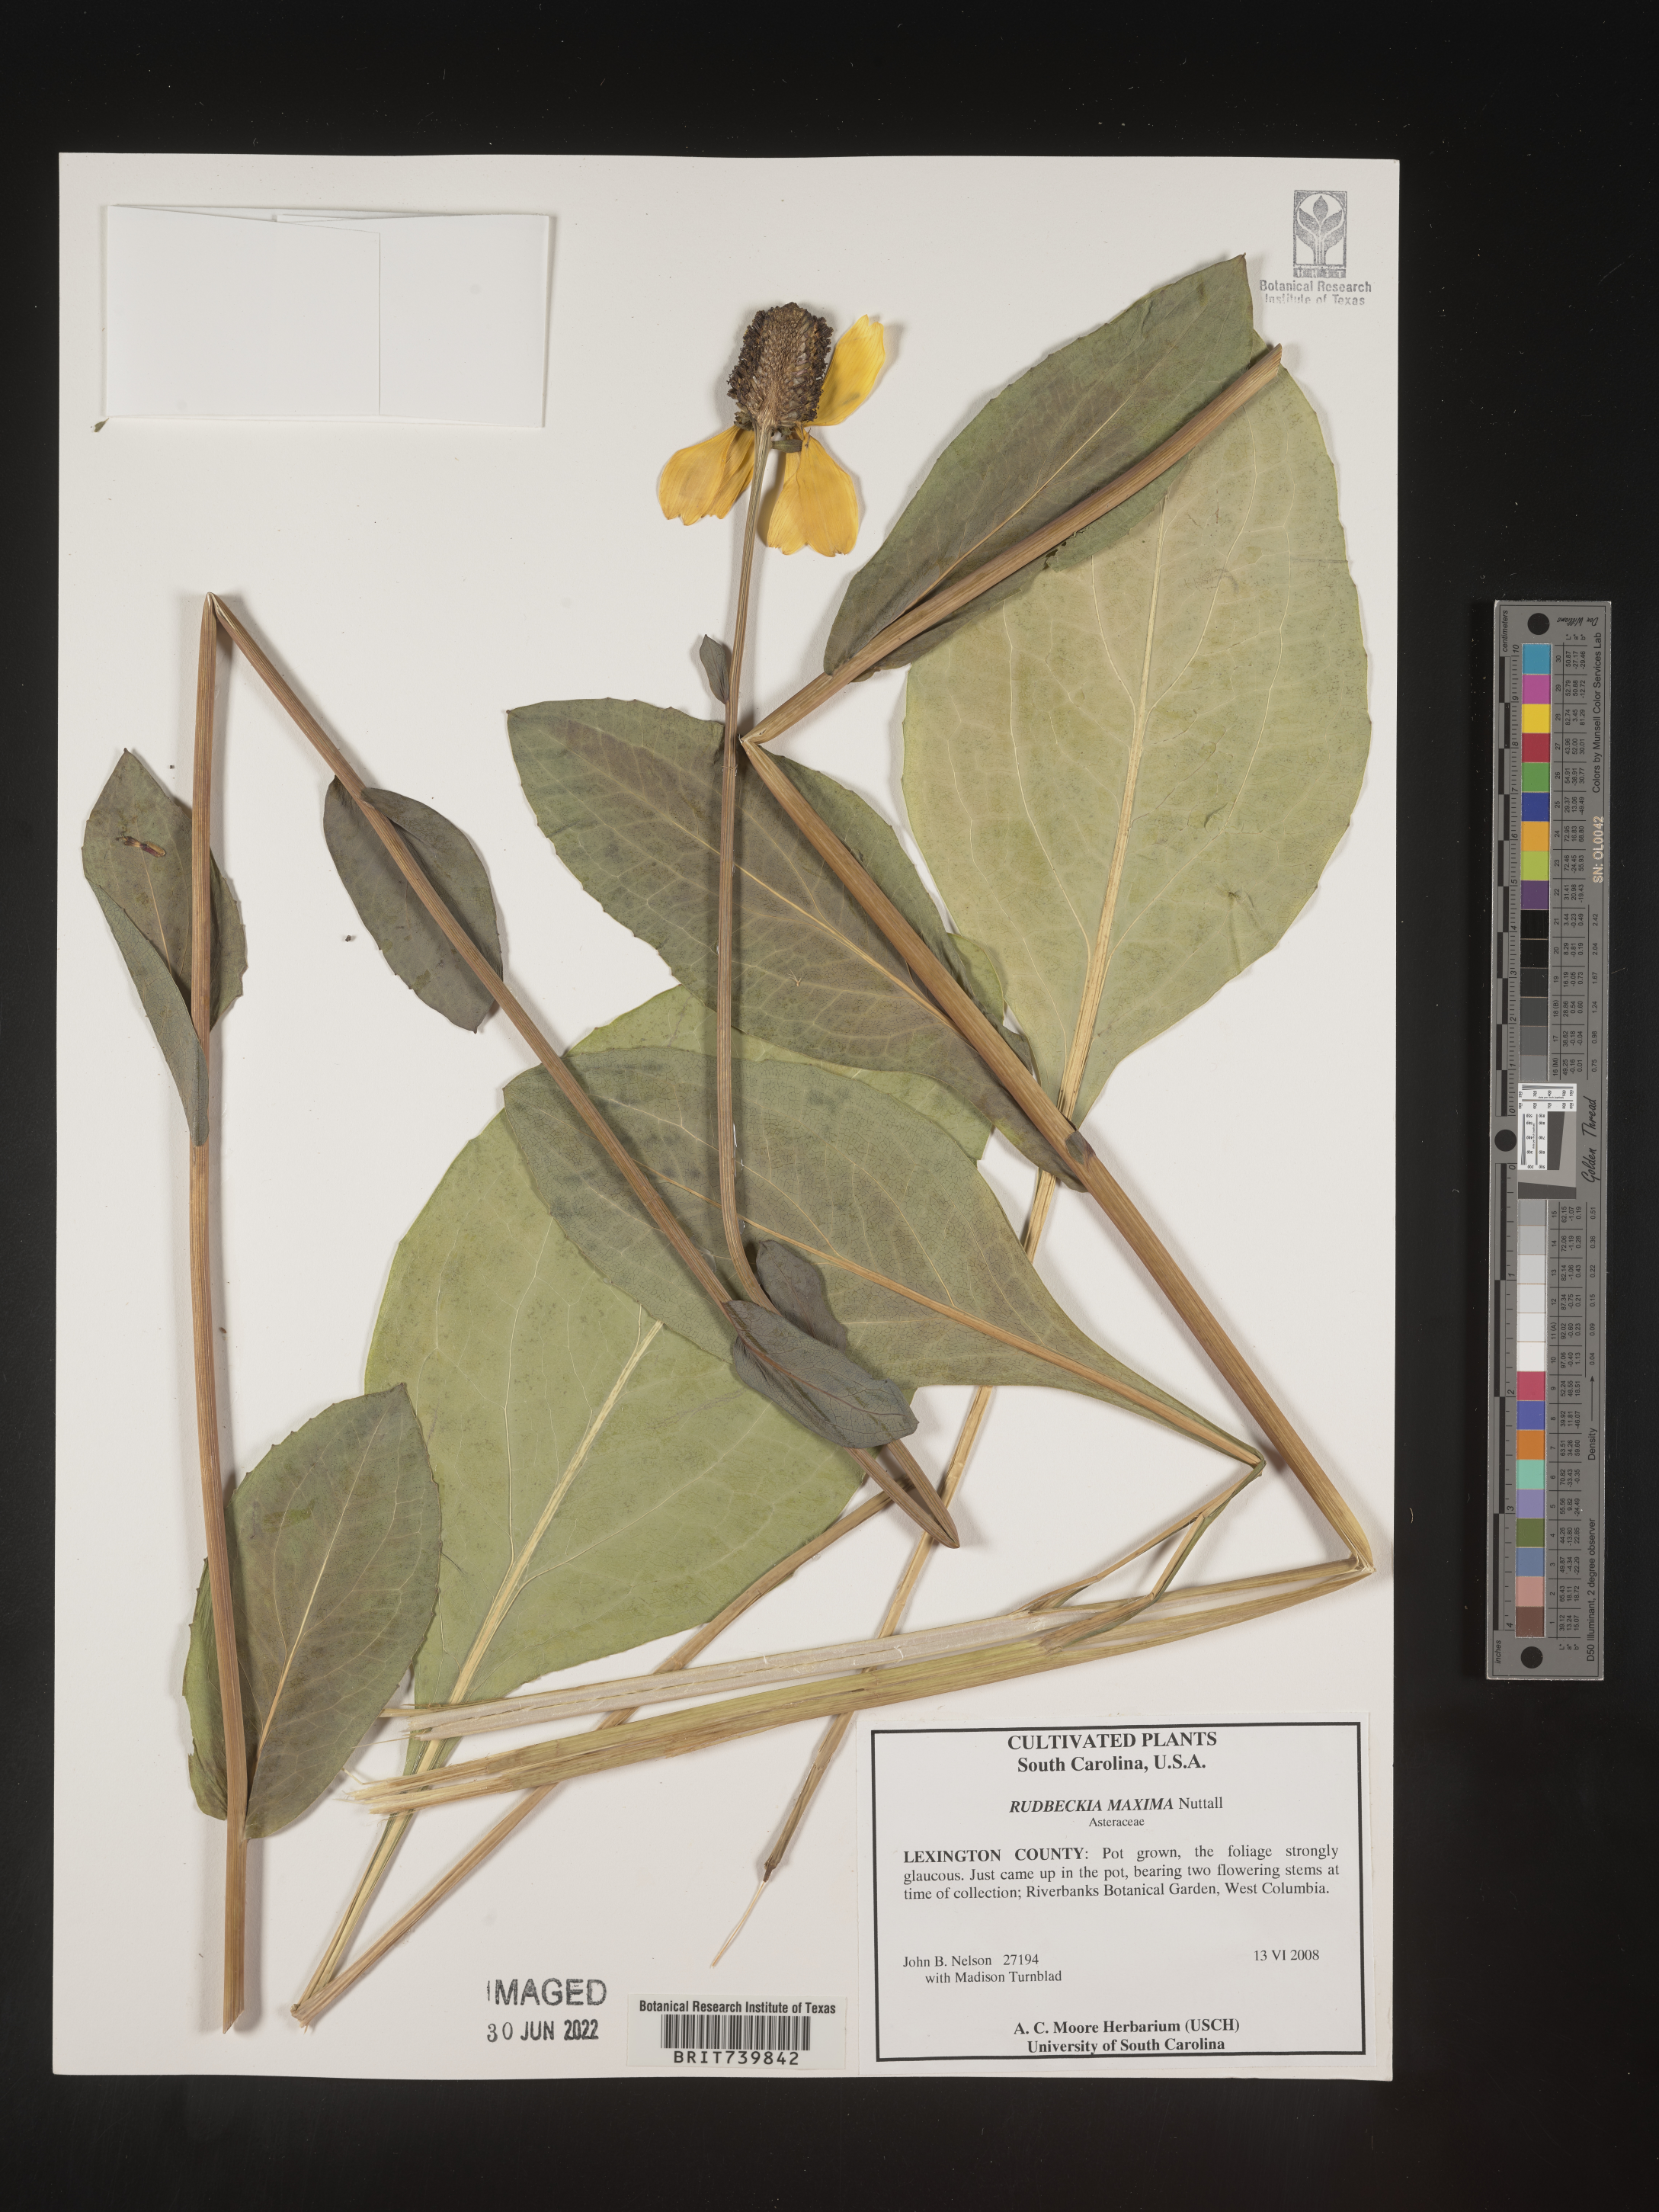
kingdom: Plantae
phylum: Tracheophyta
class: Magnoliopsida
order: Asterales
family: Asteraceae
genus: Rudbeckia
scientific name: Rudbeckia
